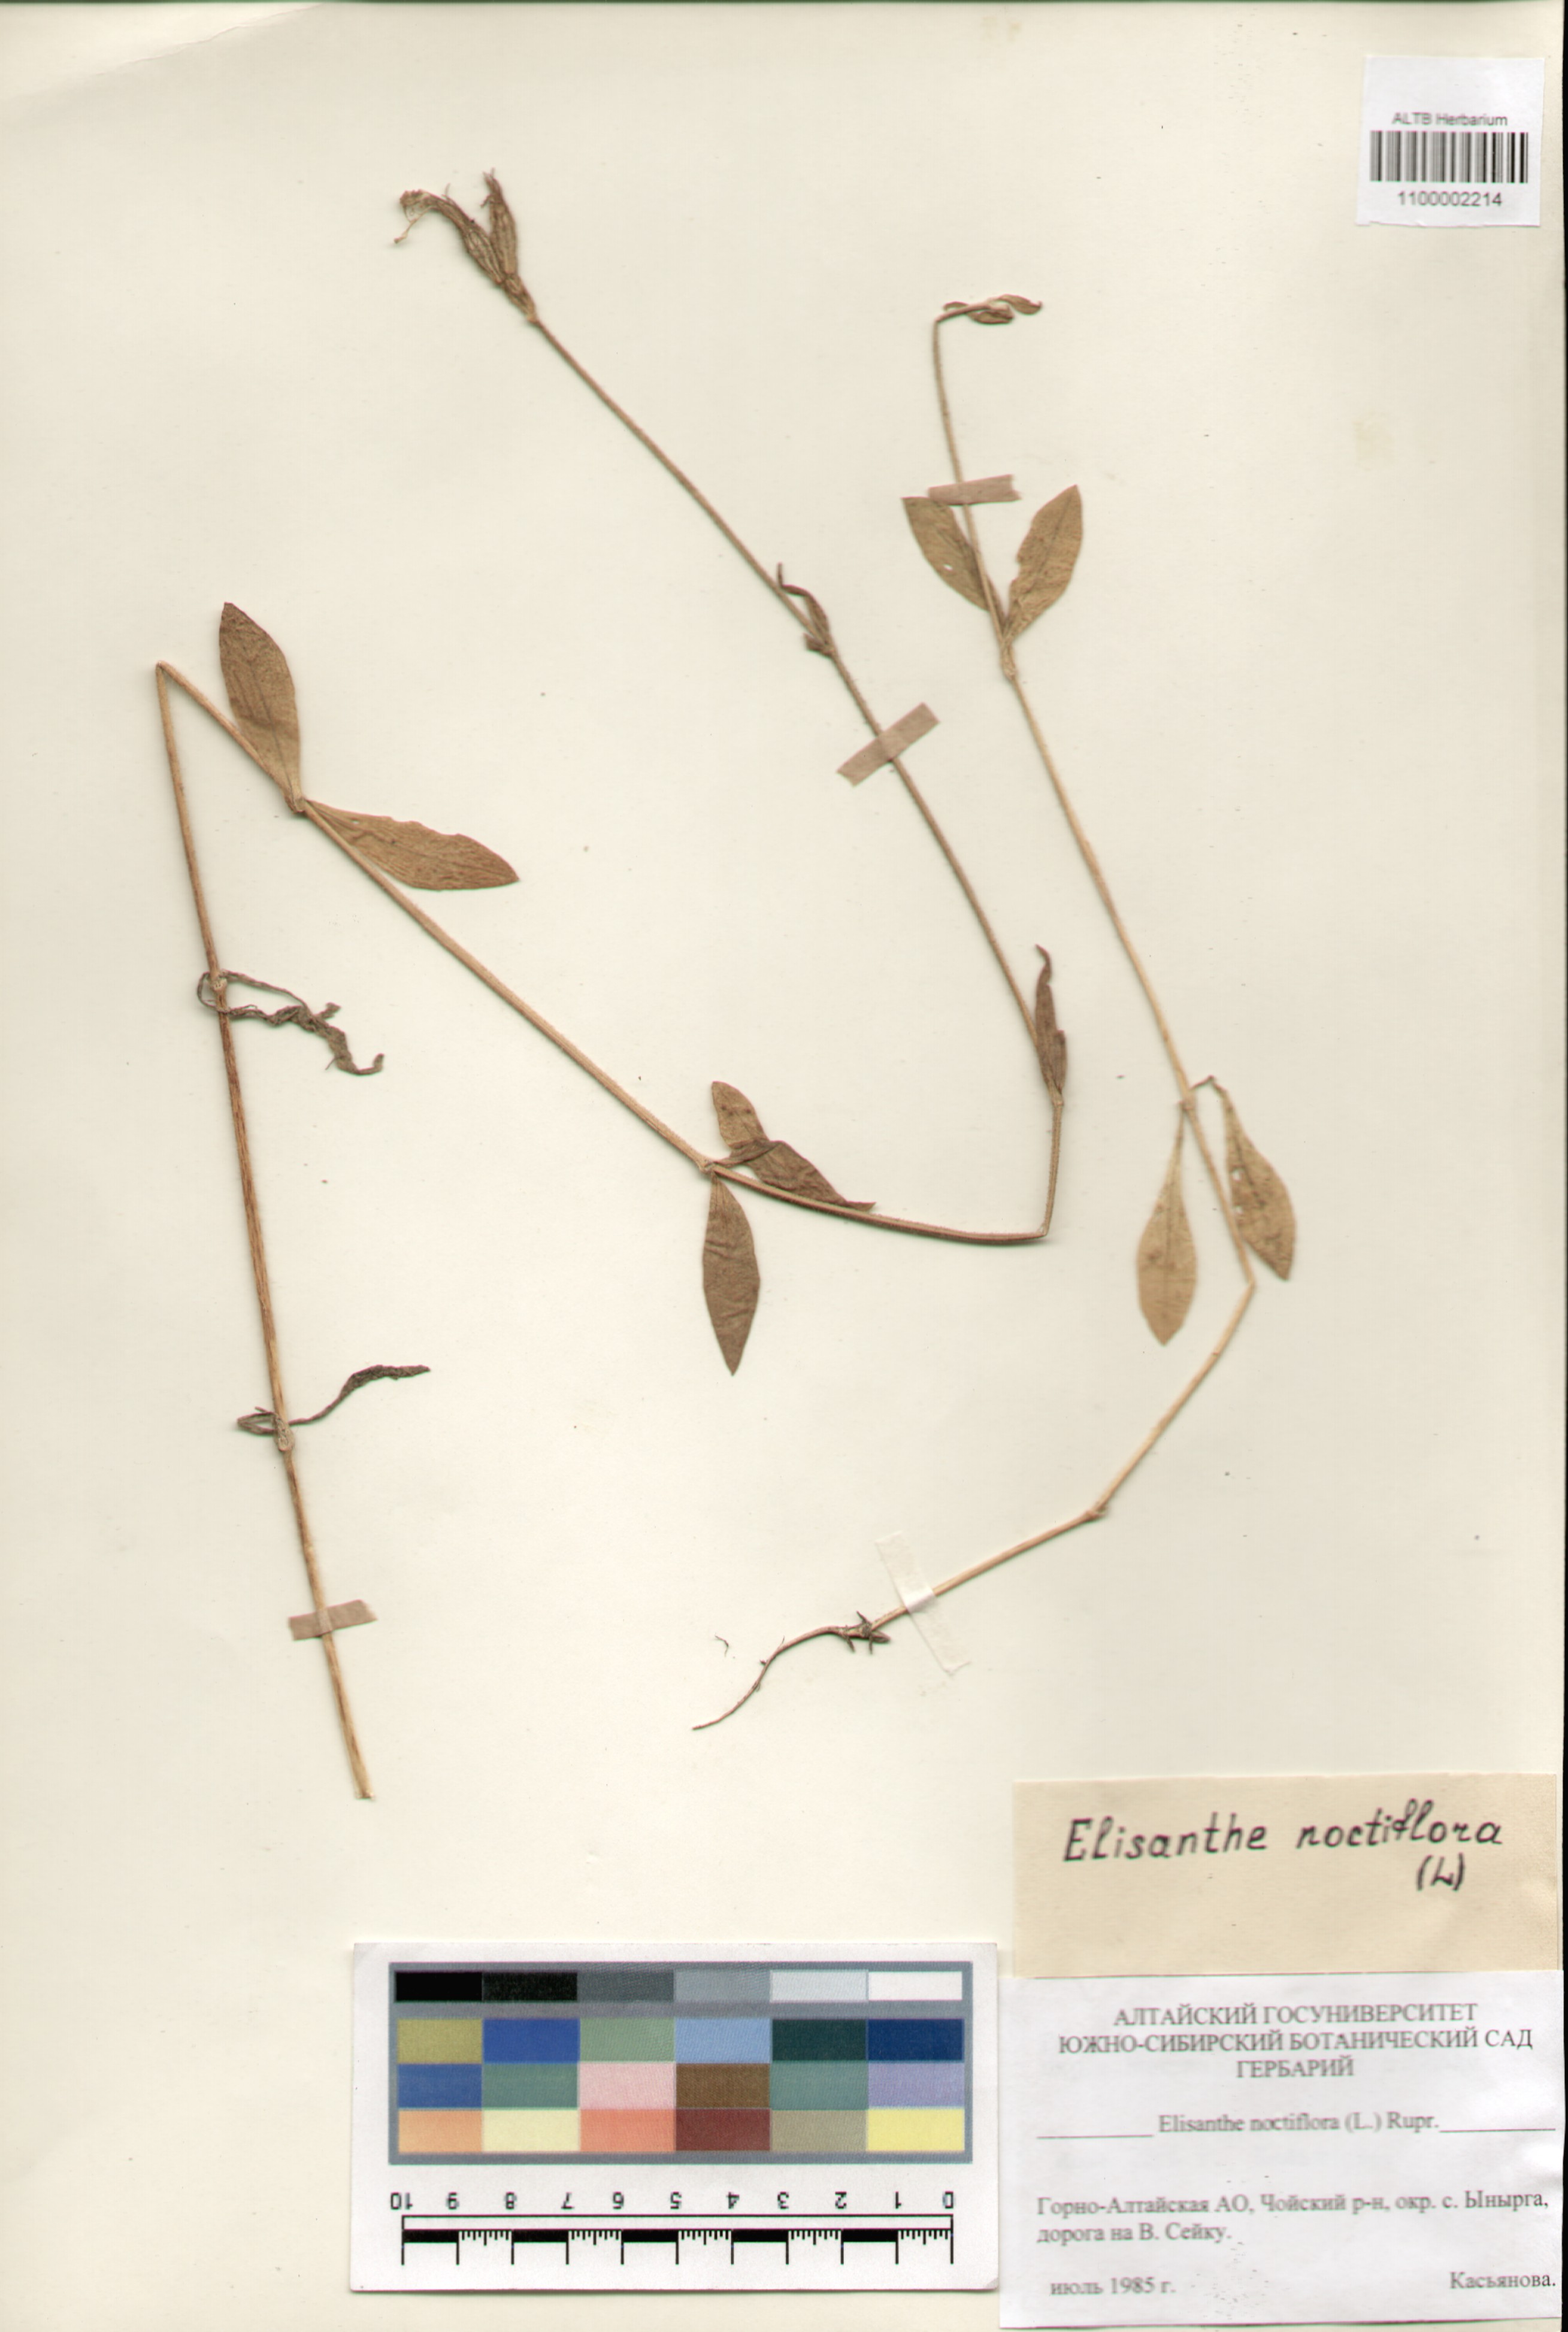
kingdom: Plantae
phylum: Tracheophyta
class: Magnoliopsida
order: Caryophyllales
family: Caryophyllaceae
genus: Silene
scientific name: Silene noctiflora
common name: Night-flowering catchfly
